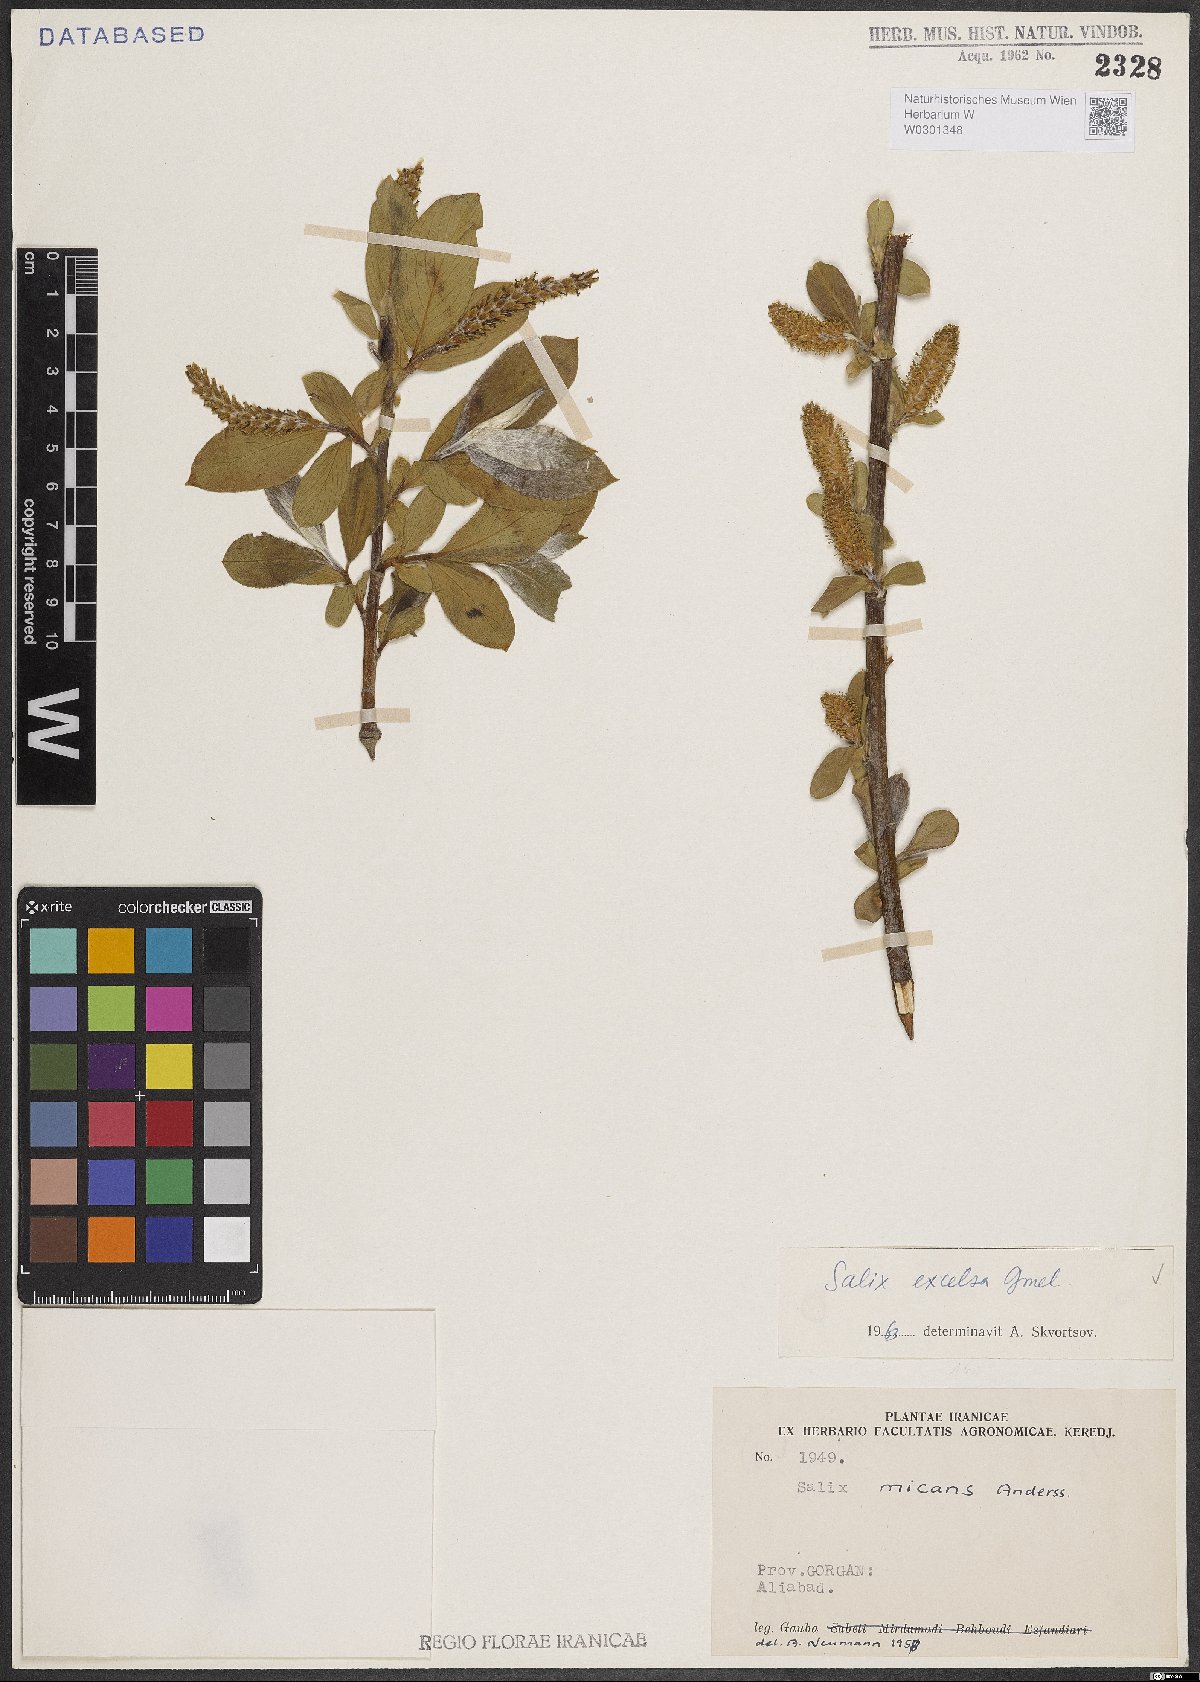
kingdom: Plantae
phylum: Tracheophyta
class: Magnoliopsida
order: Malpighiales
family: Salicaceae
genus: Salix
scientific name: Salix excelsa
